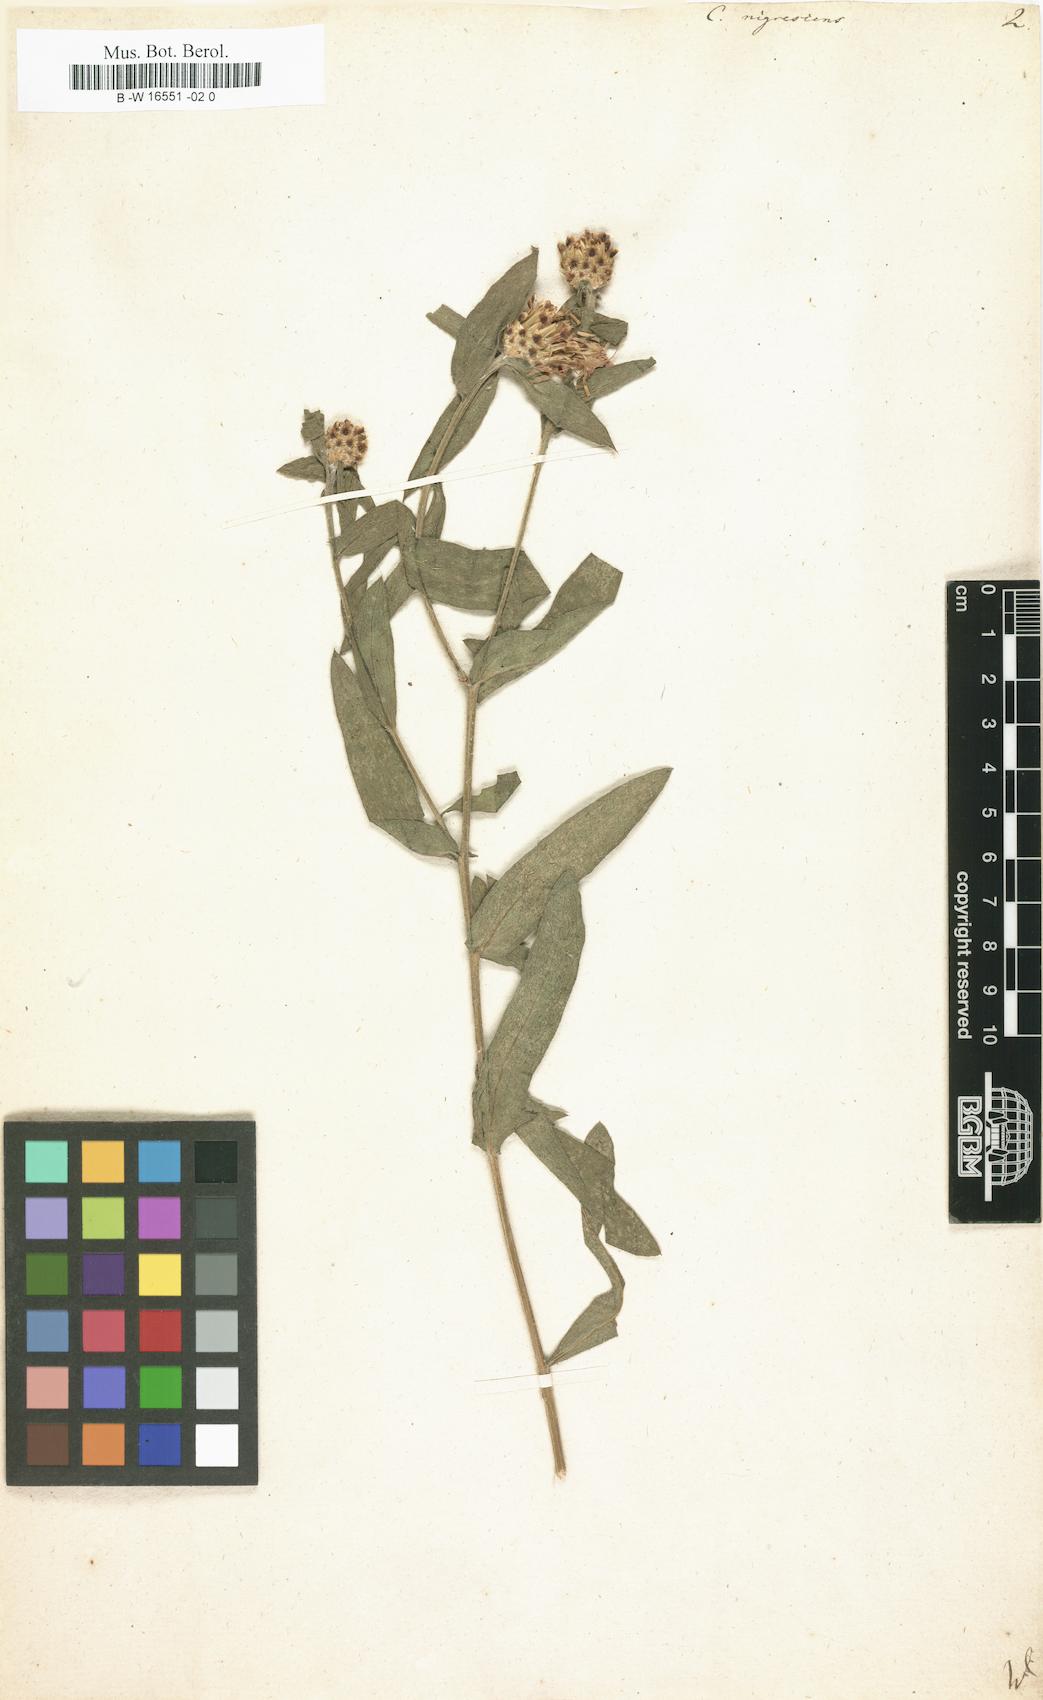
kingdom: Plantae
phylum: Tracheophyta
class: Magnoliopsida
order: Asterales
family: Asteraceae
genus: Centaurea
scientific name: Centaurea nigrescens
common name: Tyrol knapweed
